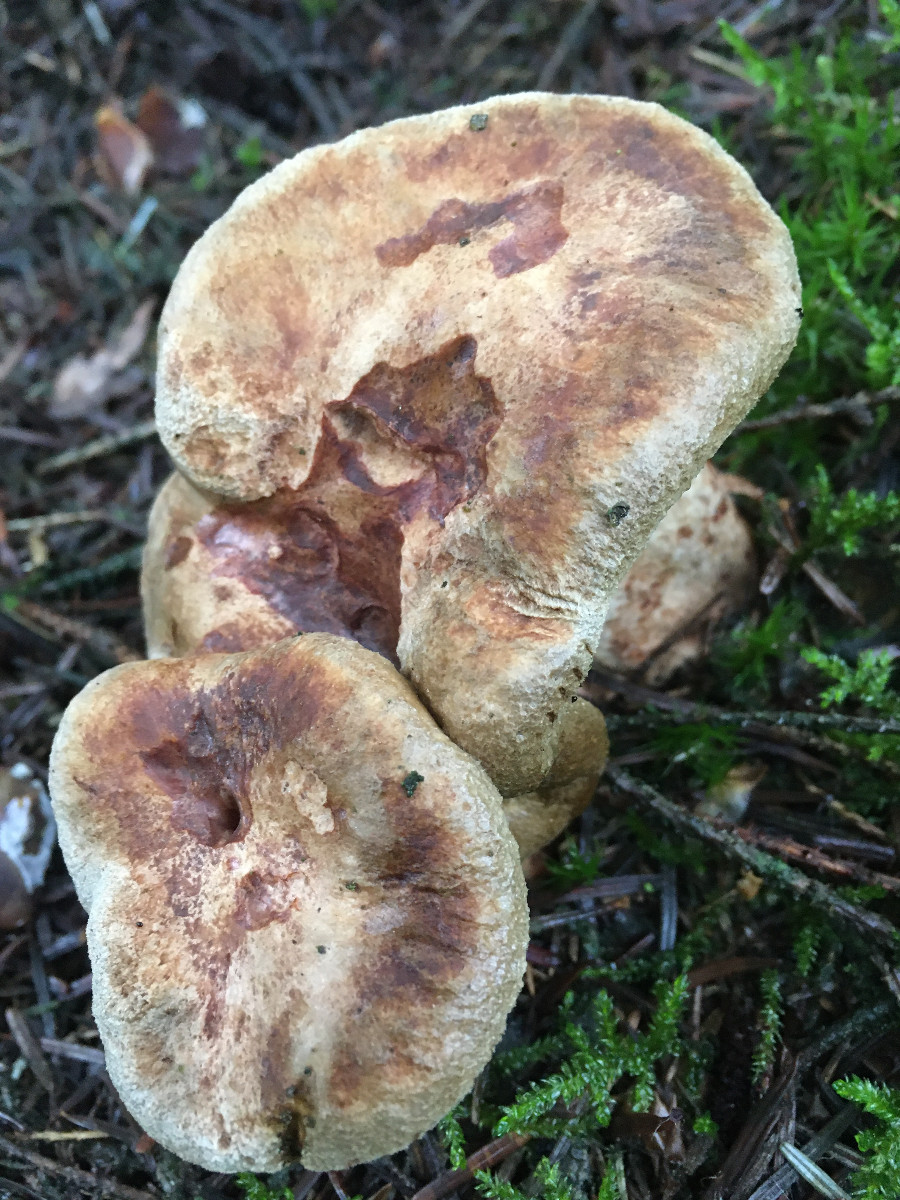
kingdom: Fungi
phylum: Basidiomycota
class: Agaricomycetes
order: Boletales
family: Paxillaceae
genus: Paxillus
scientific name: Paxillus involutus
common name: almindelig netbladhat
